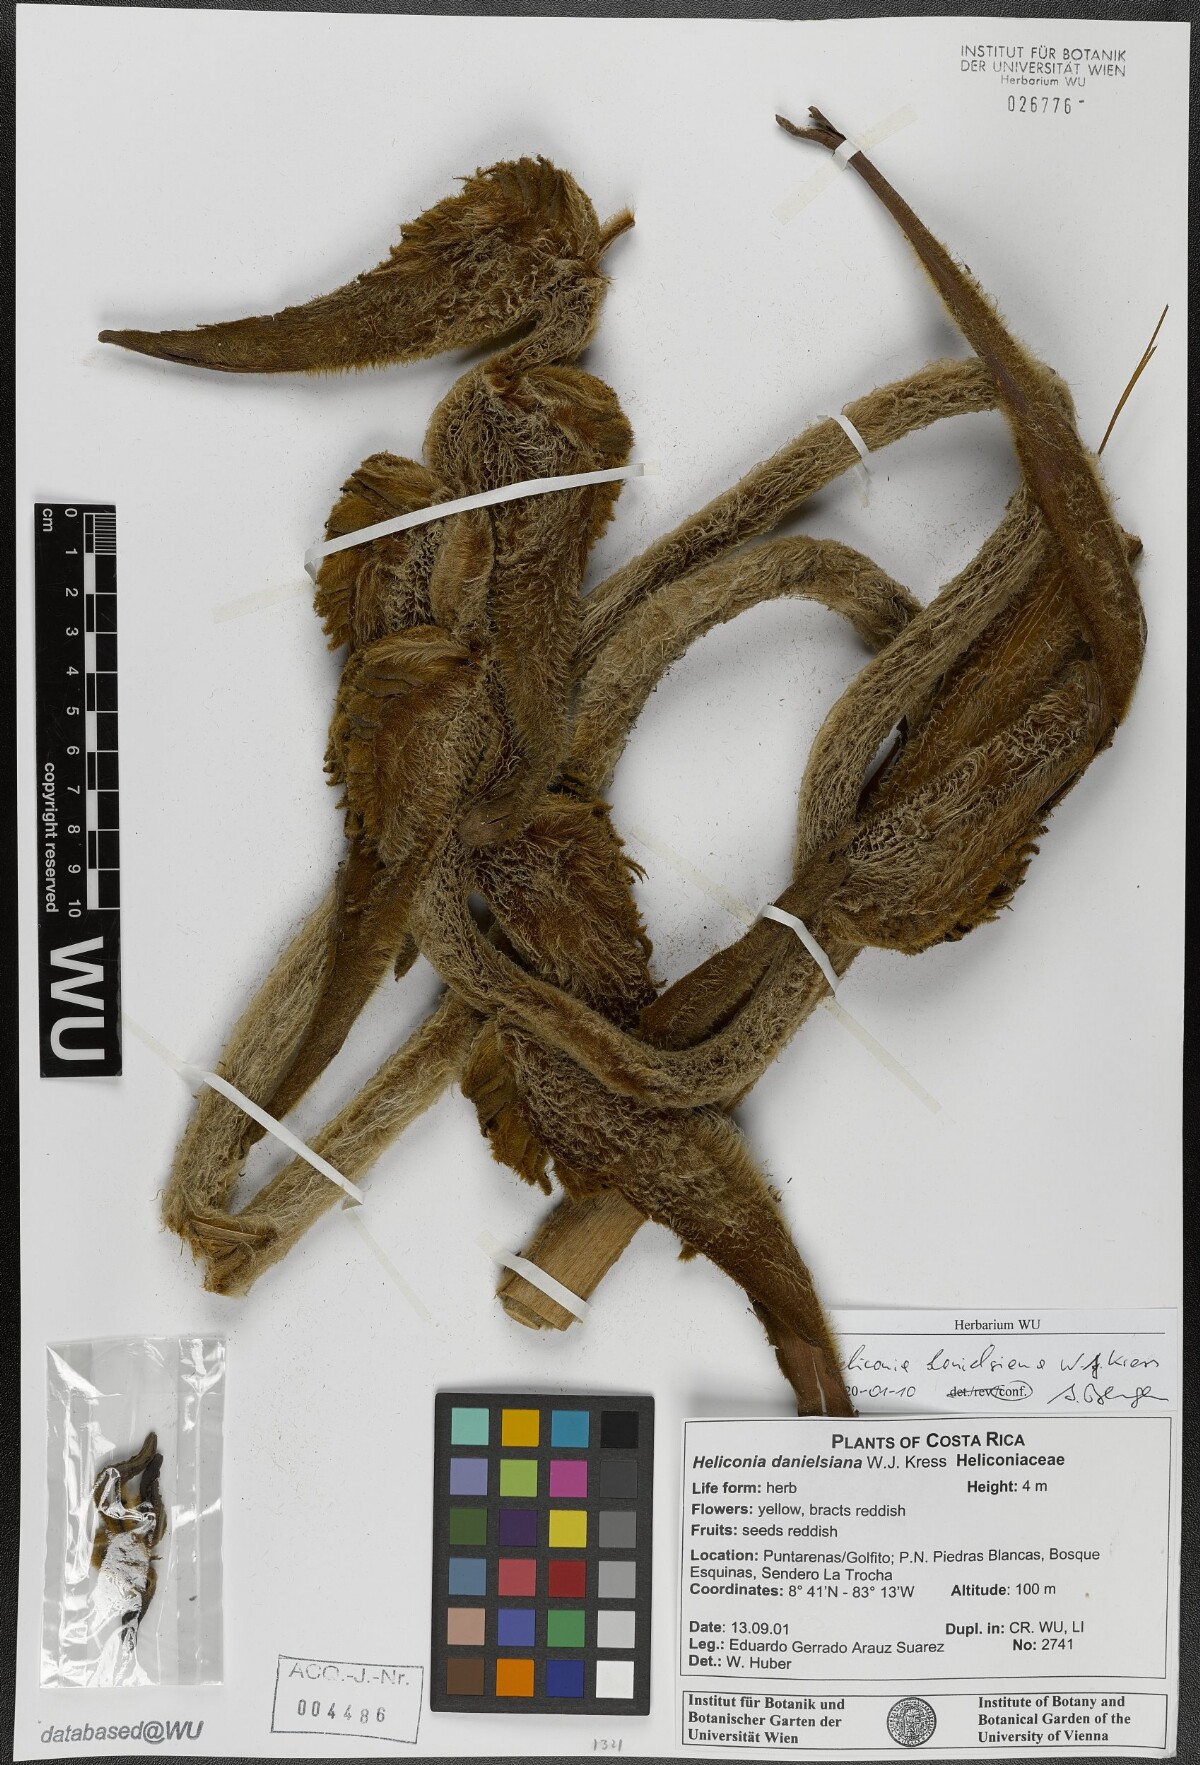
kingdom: Plantae
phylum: Tracheophyta
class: Liliopsida
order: Zingiberales
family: Heliconiaceae
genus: Heliconia
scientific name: Heliconia danielsiana
